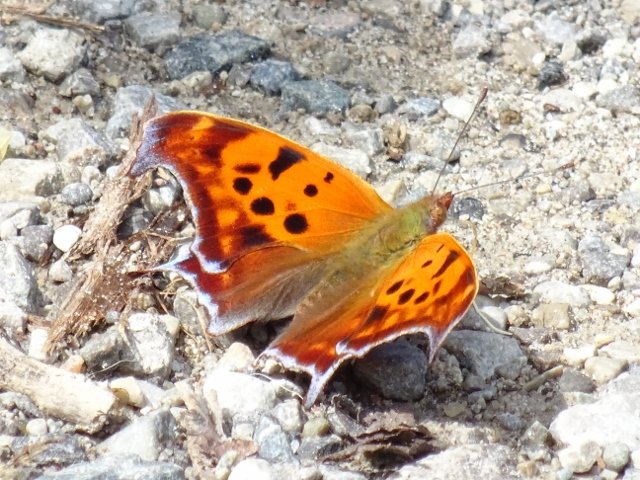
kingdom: Animalia
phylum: Arthropoda
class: Insecta
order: Lepidoptera
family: Nymphalidae
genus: Polygonia
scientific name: Polygonia interrogationis
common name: Question Mark
